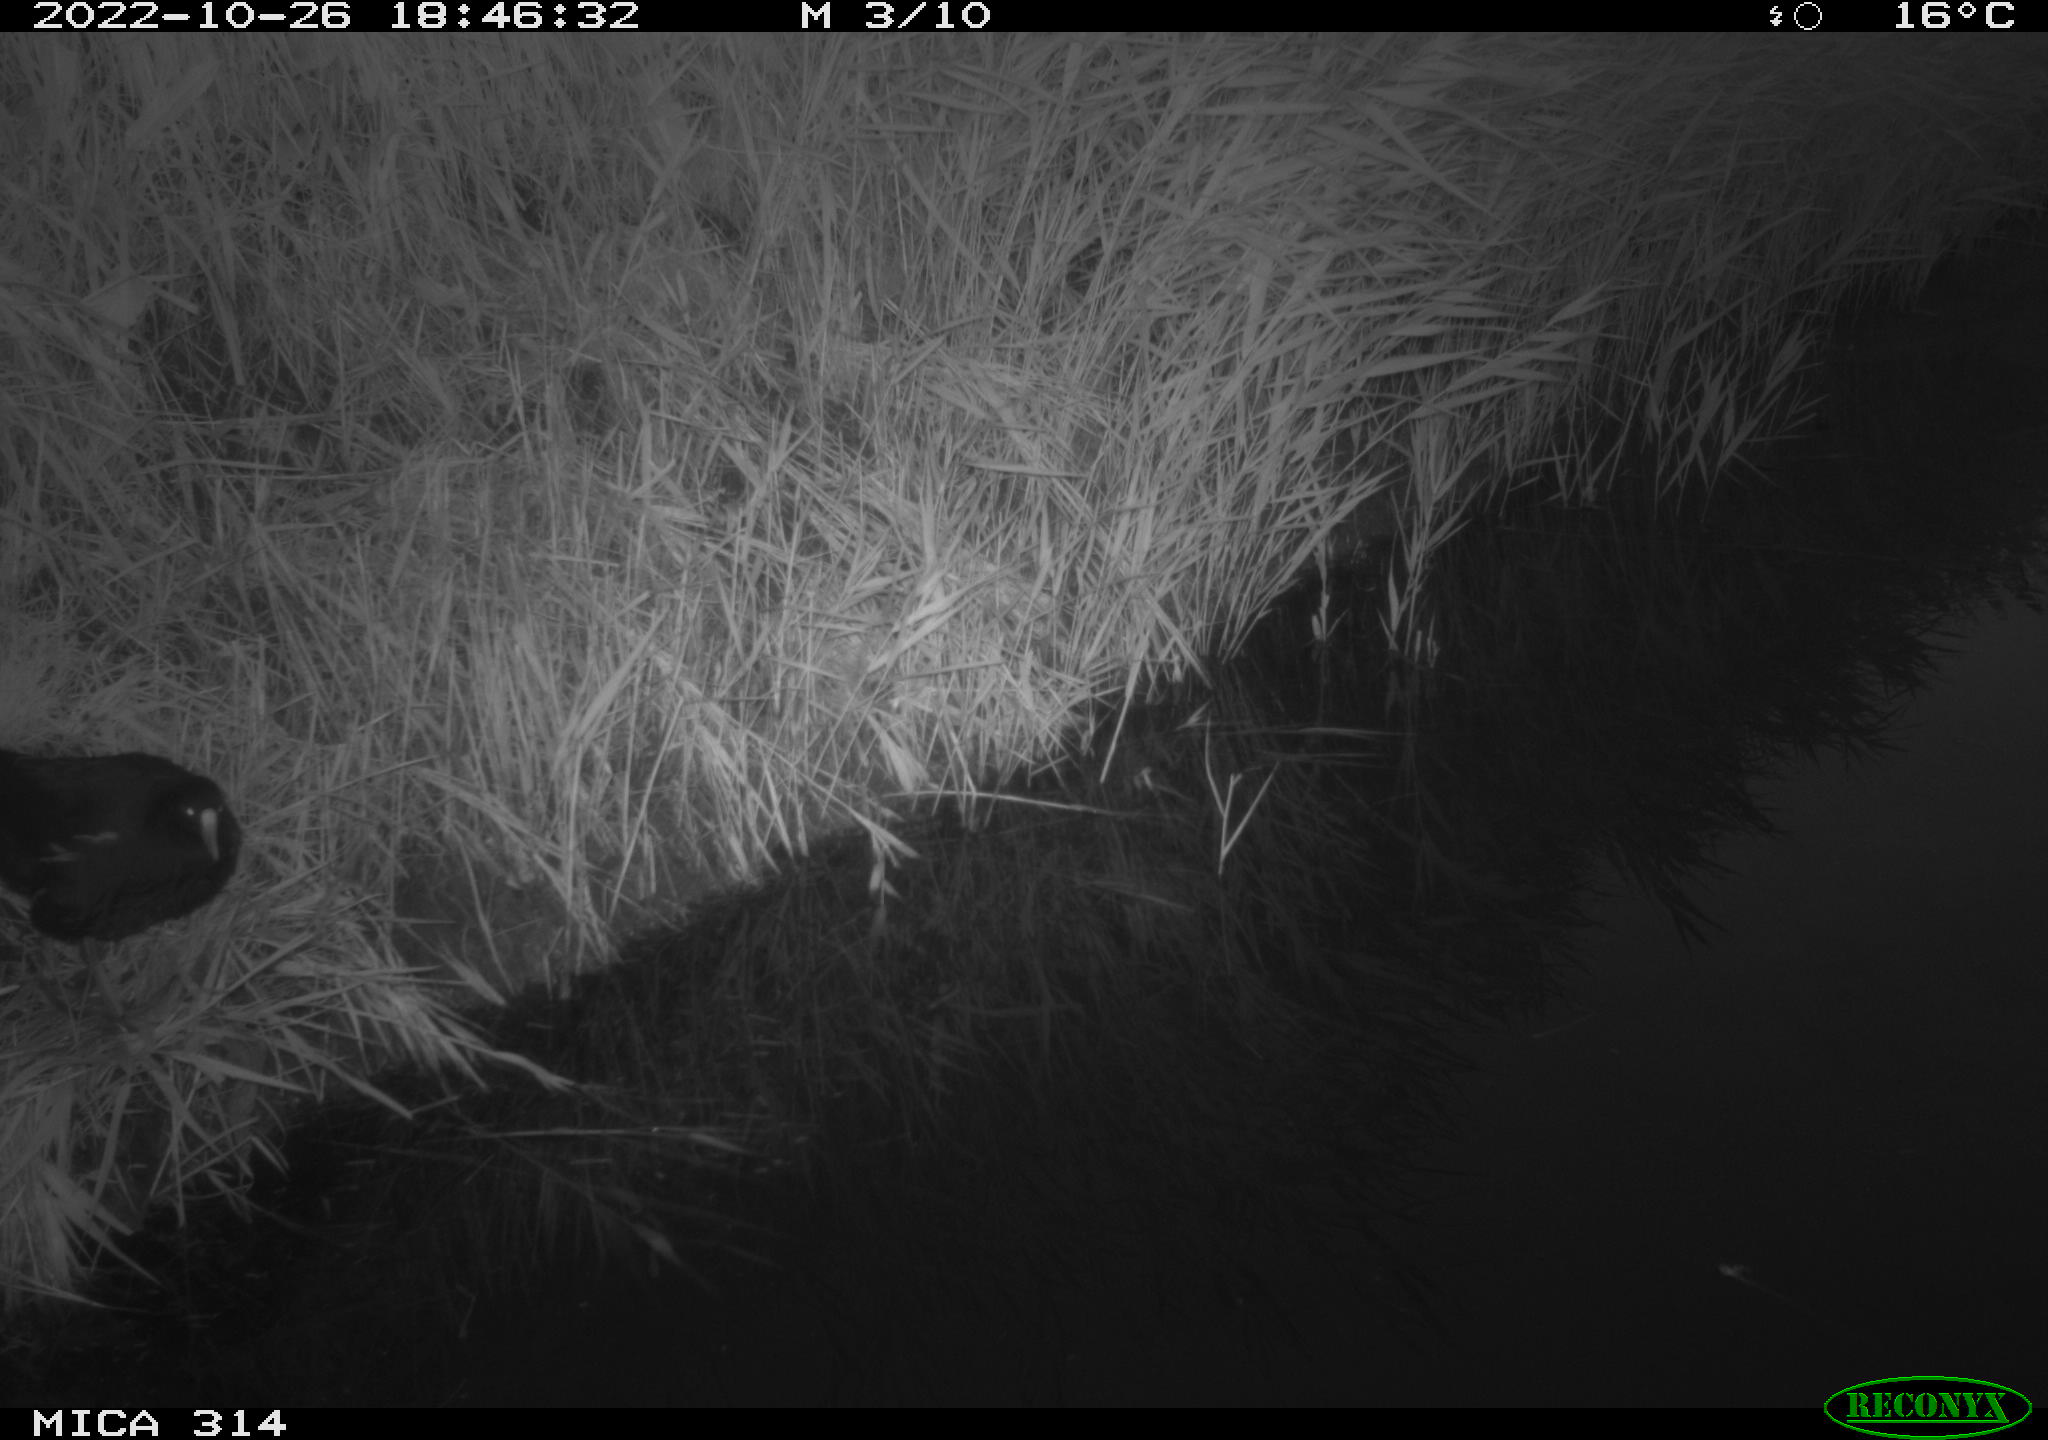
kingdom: Animalia
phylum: Chordata
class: Aves
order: Gruiformes
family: Rallidae
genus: Gallinula
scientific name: Gallinula chloropus
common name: Common moorhen
